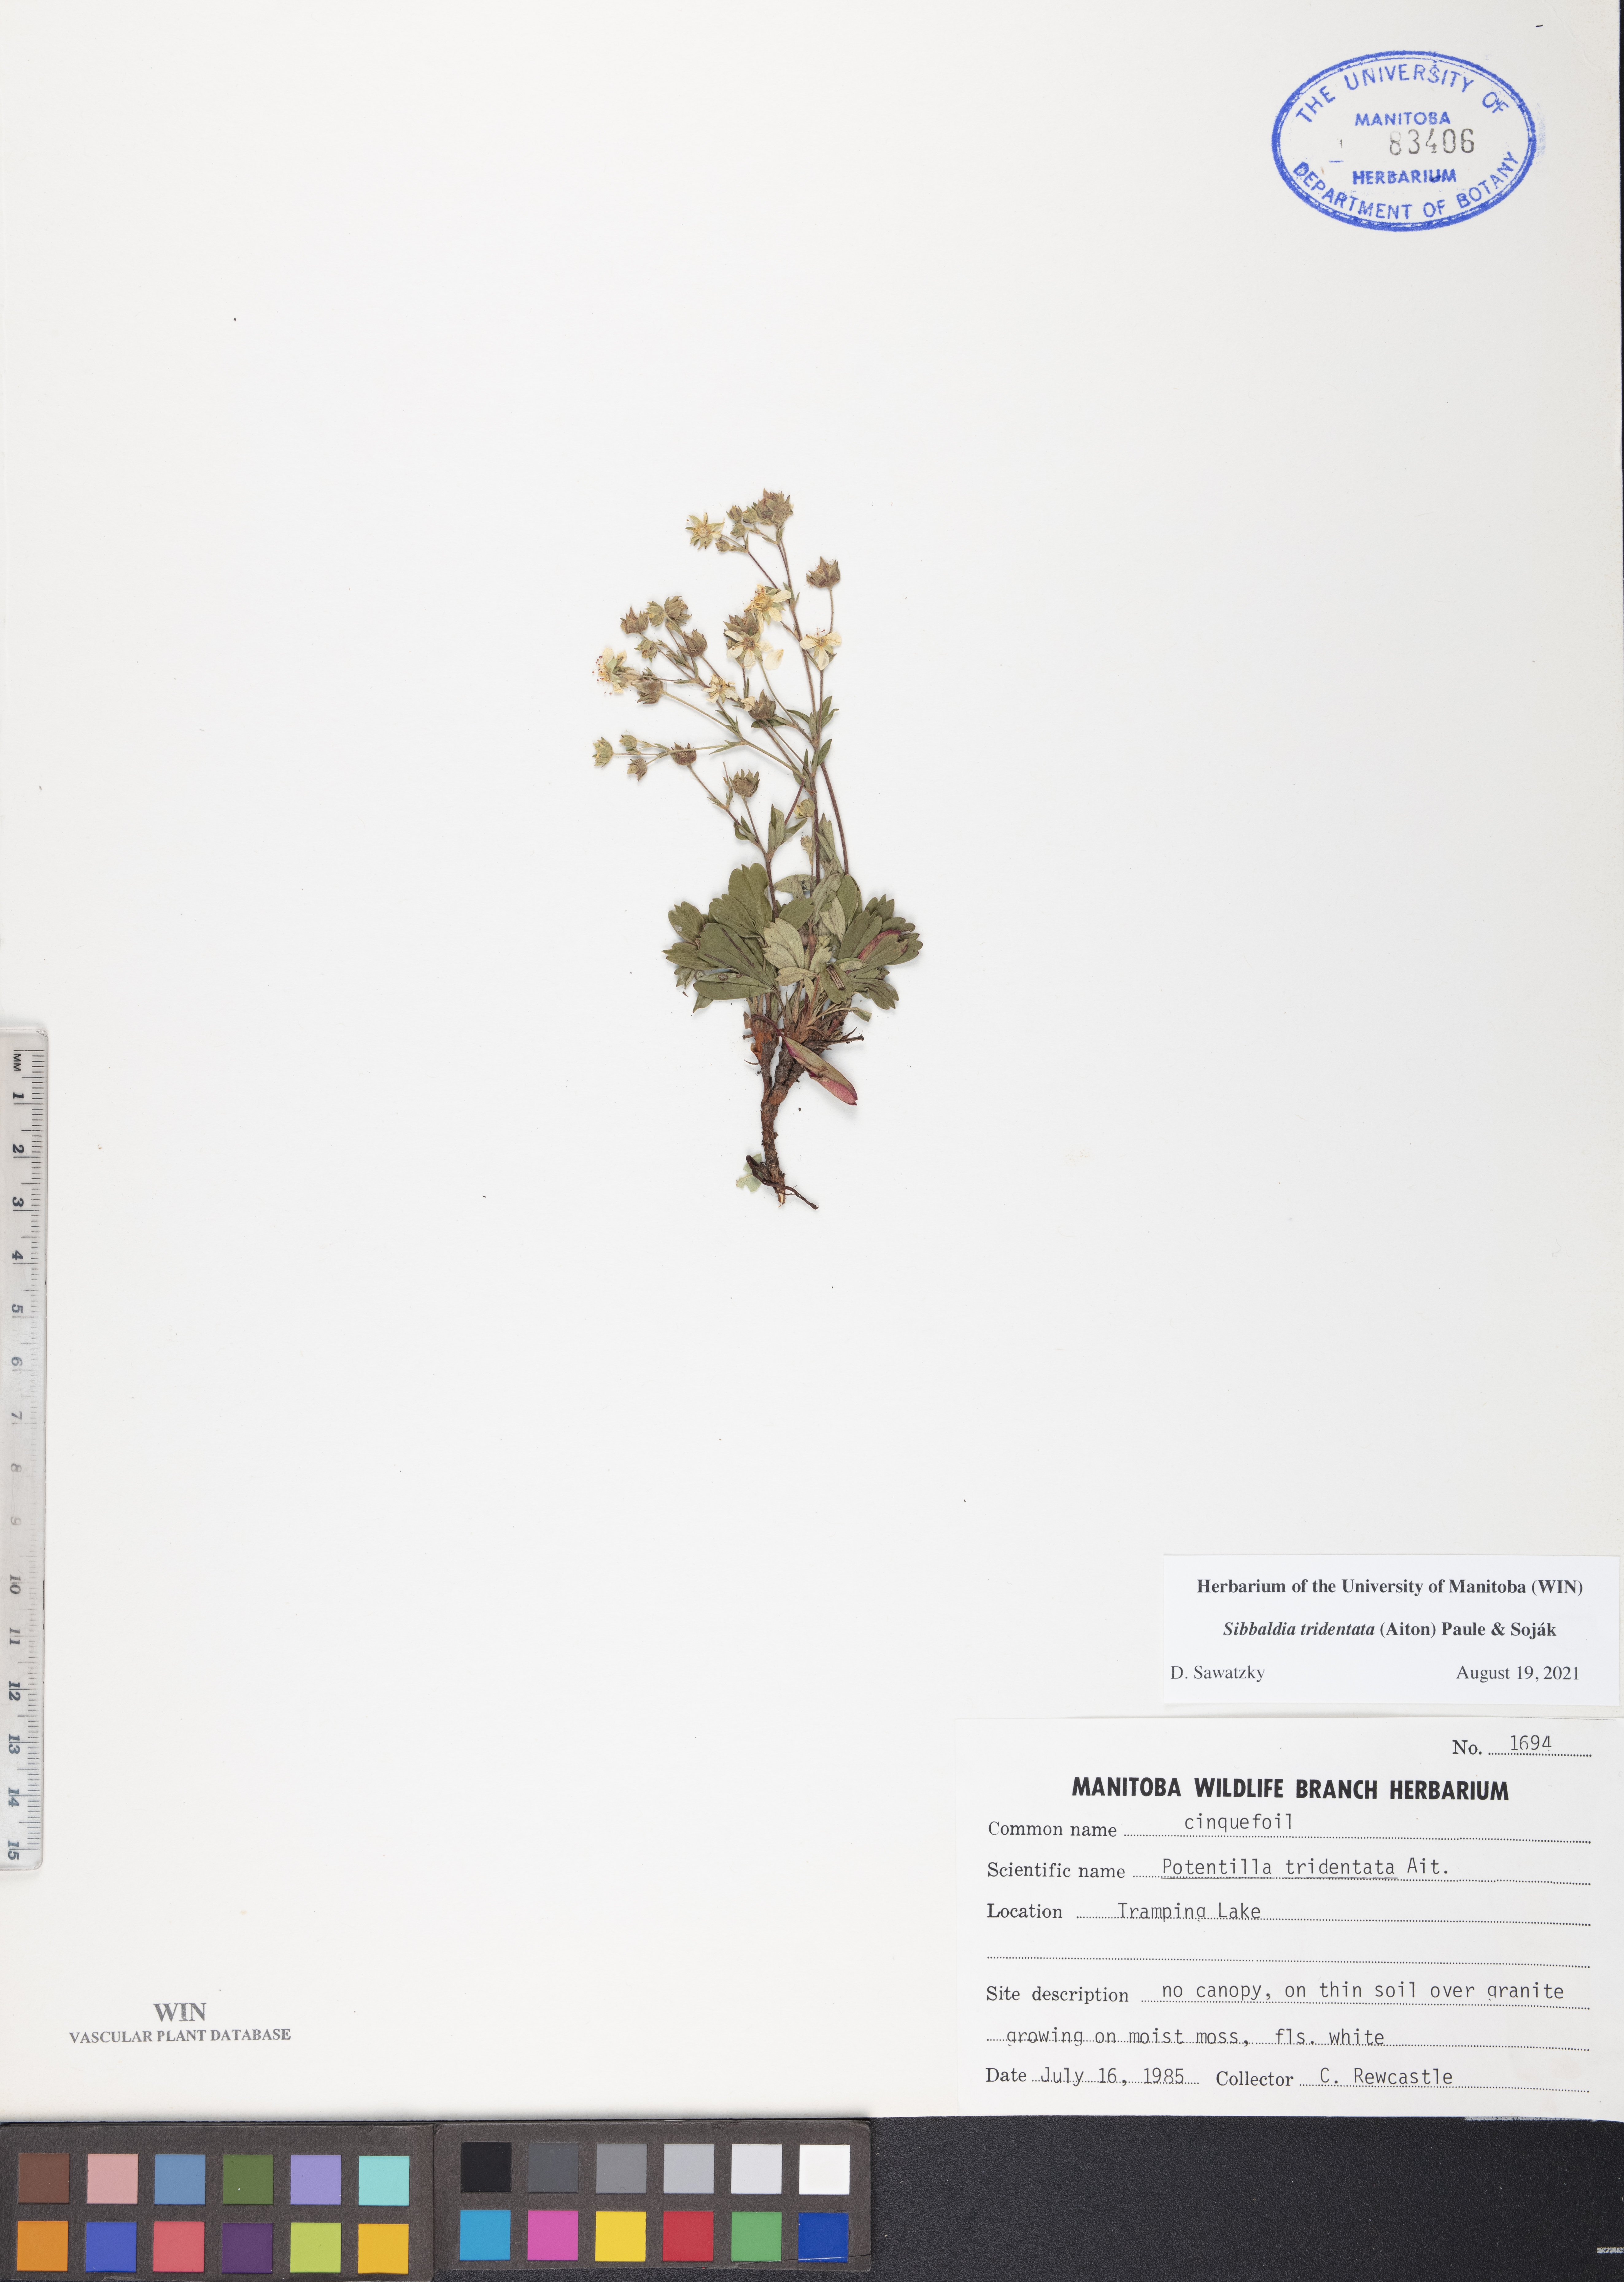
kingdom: Plantae
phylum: Tracheophyta
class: Magnoliopsida
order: Rosales
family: Rosaceae
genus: Sibbaldia
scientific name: Sibbaldia tridentata
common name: Three-toothed cinquefoil
